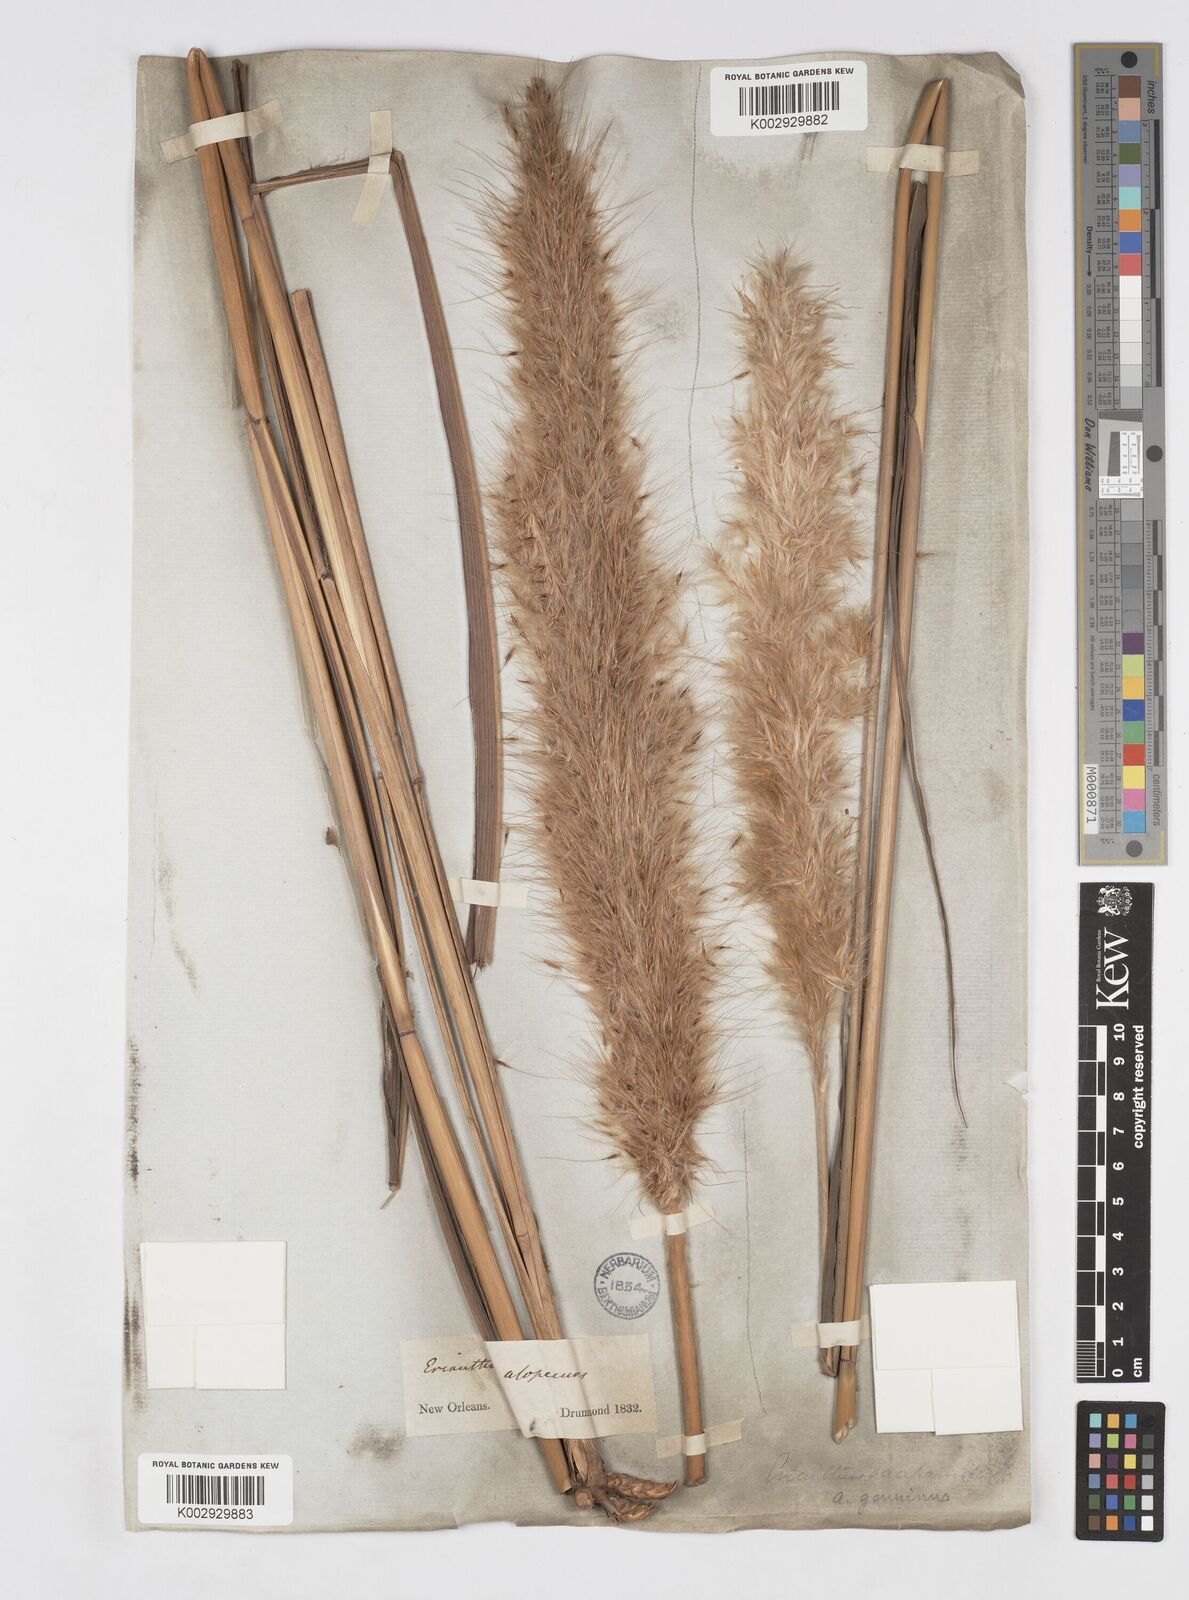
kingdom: Plantae
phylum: Tracheophyta
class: Liliopsida
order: Poales
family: Poaceae
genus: Saccharum
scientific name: Saccharum
